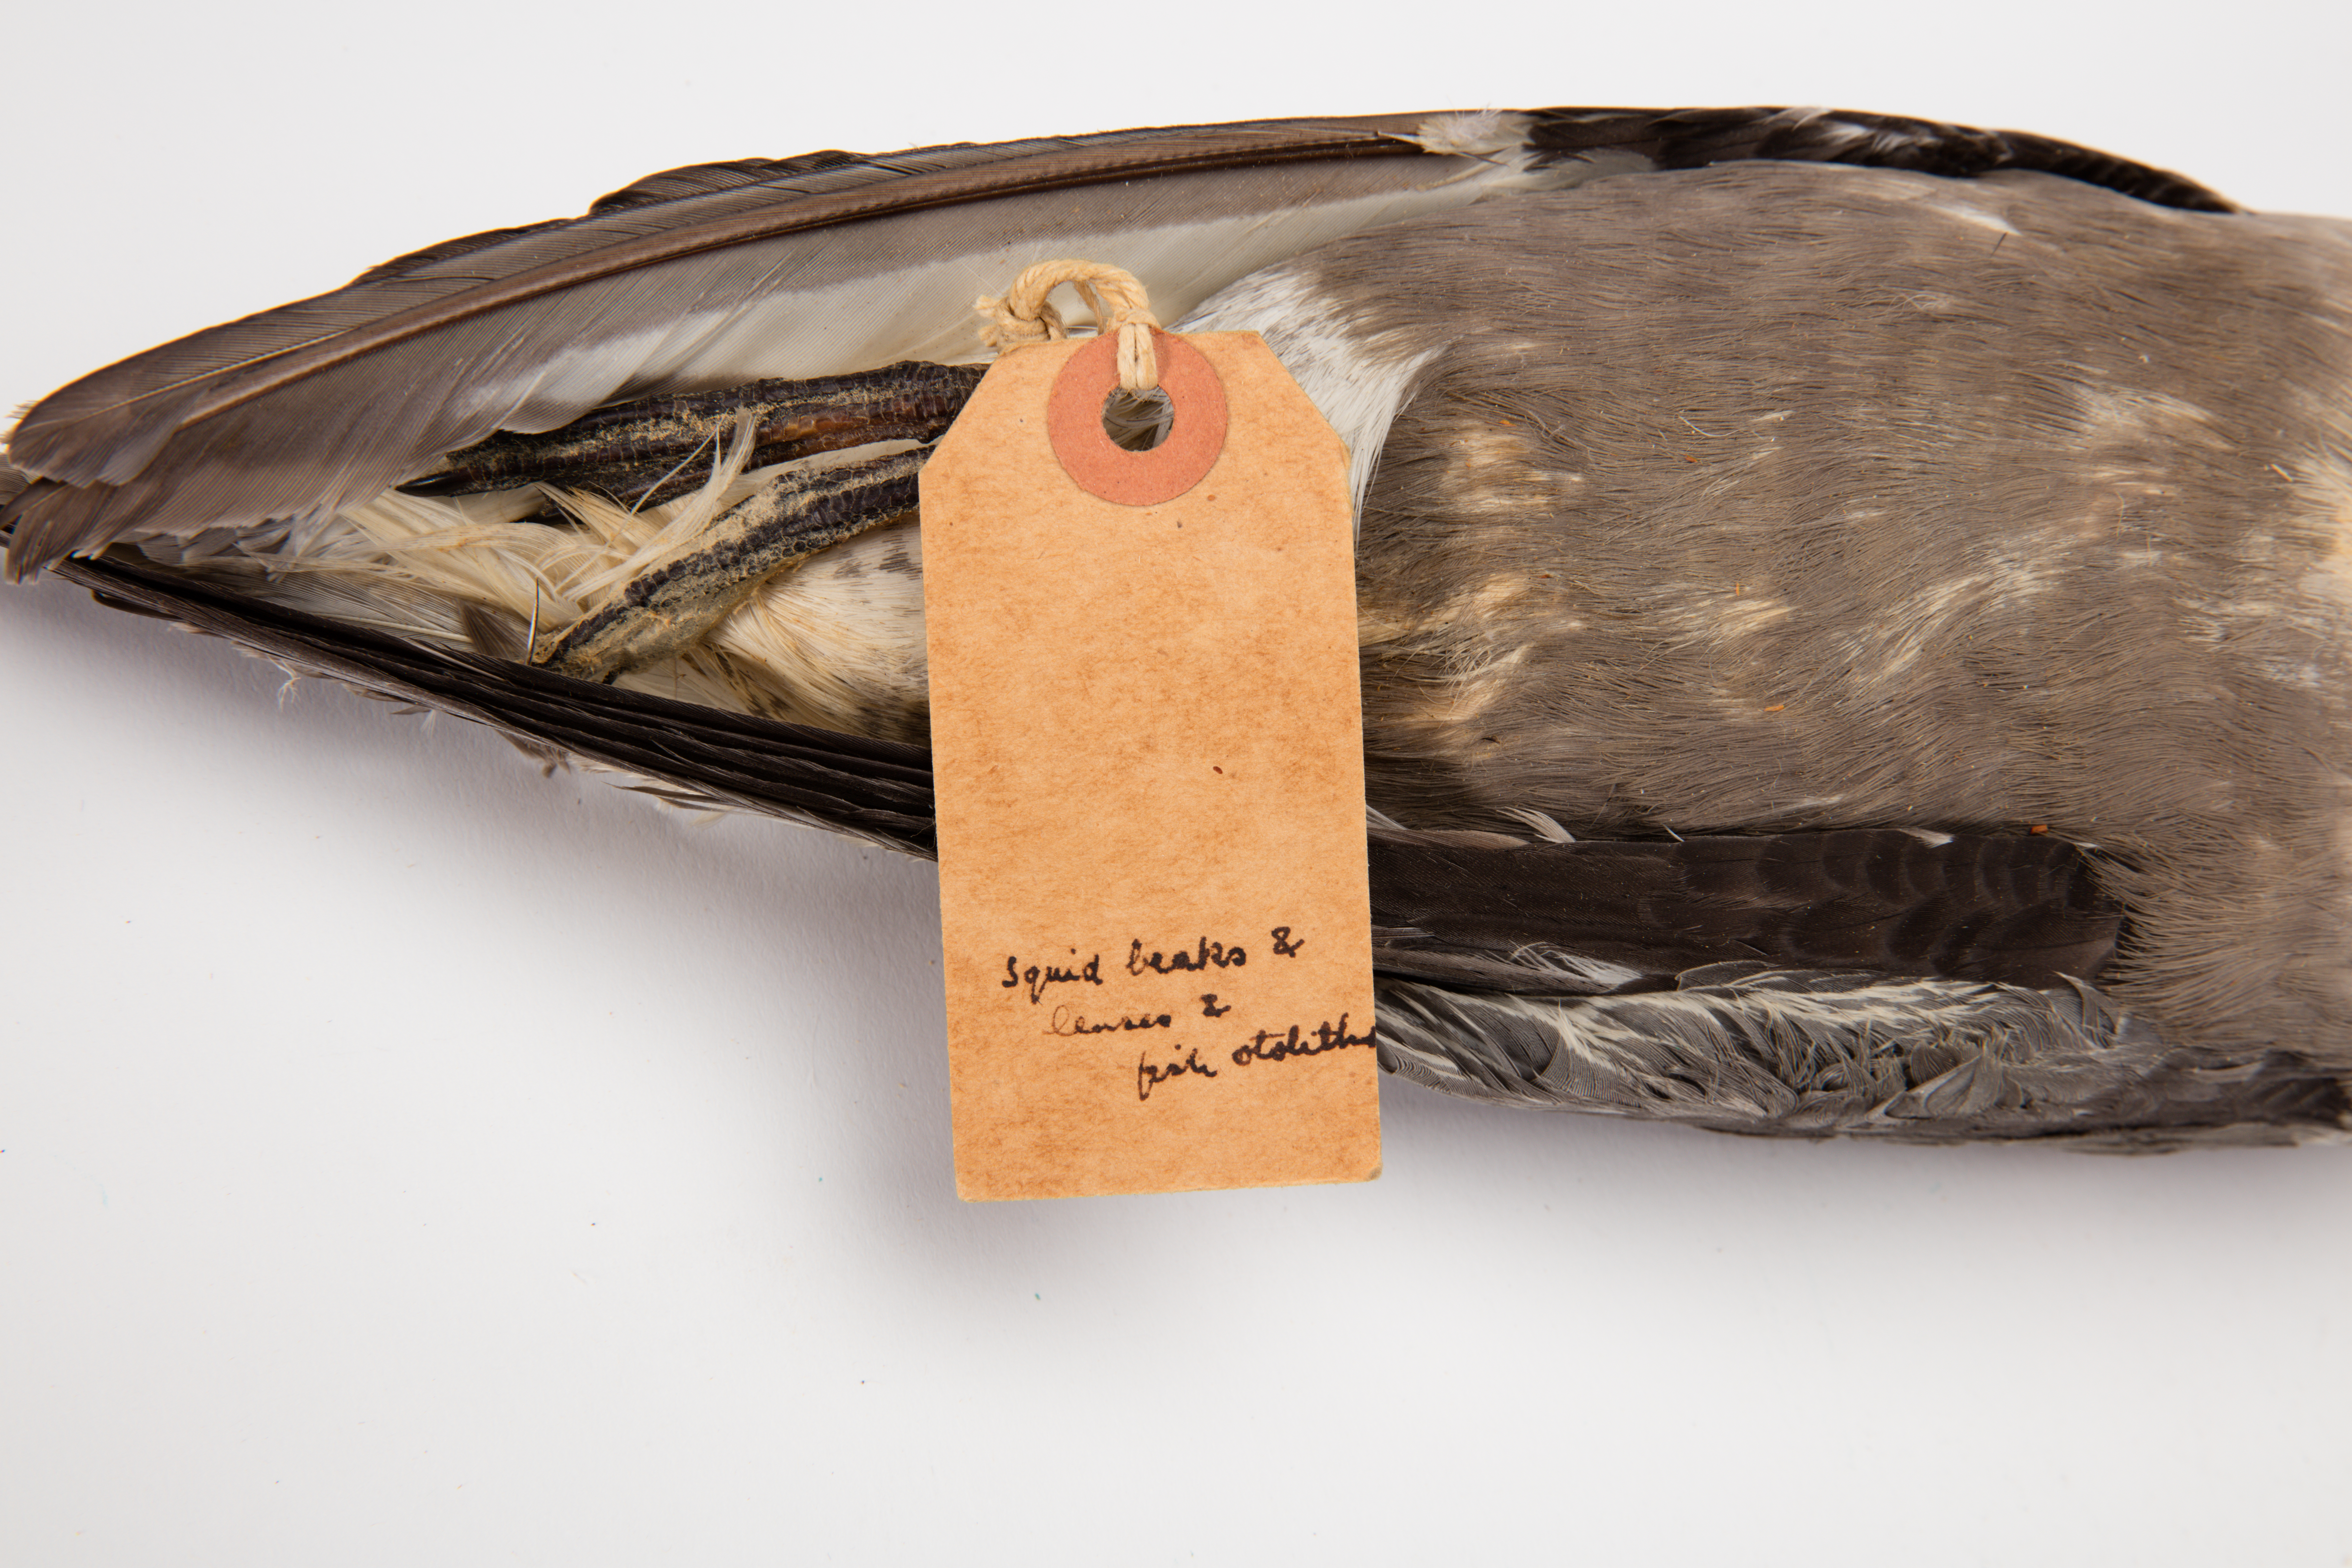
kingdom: Animalia
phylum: Chordata
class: Aves
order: Procellariiformes
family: Procellariidae
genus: Pterodroma
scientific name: Pterodroma inexpectata
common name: Mottled petrel
